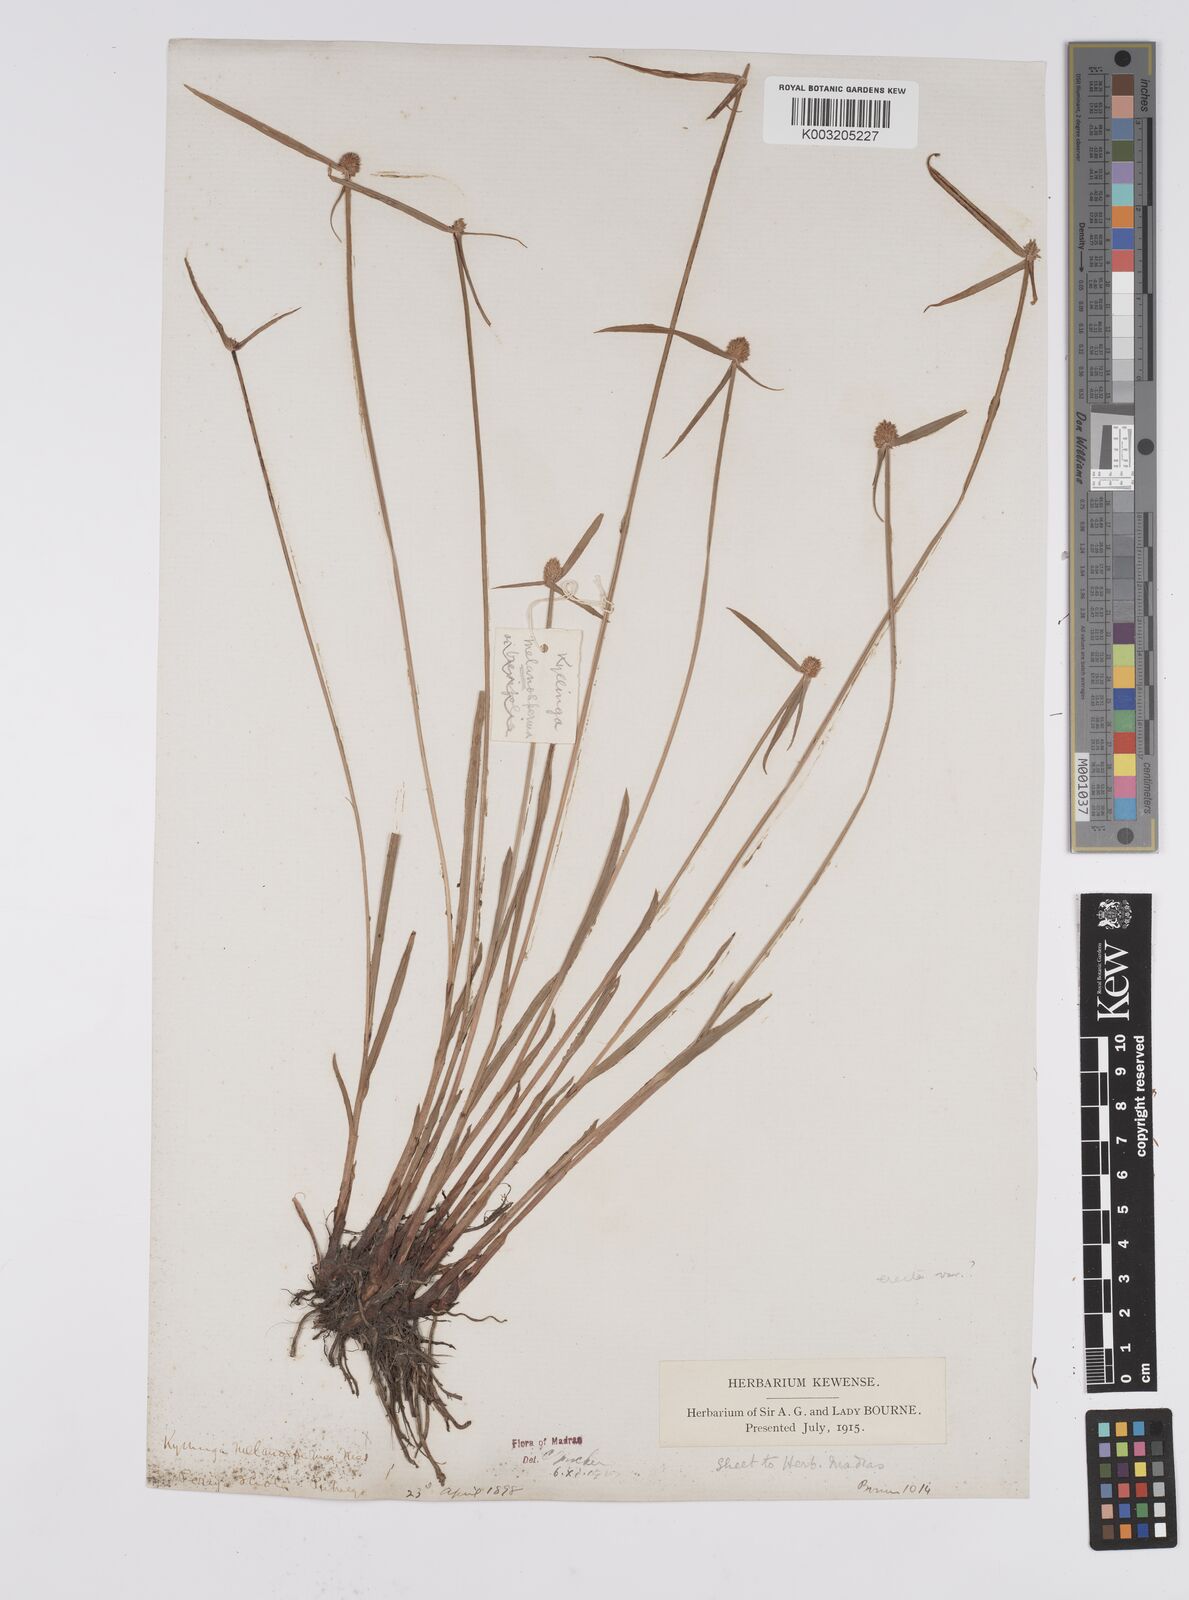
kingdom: Plantae
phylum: Tracheophyta
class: Liliopsida
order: Poales
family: Cyperaceae
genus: Cyperus
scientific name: Cyperus melanospermus
